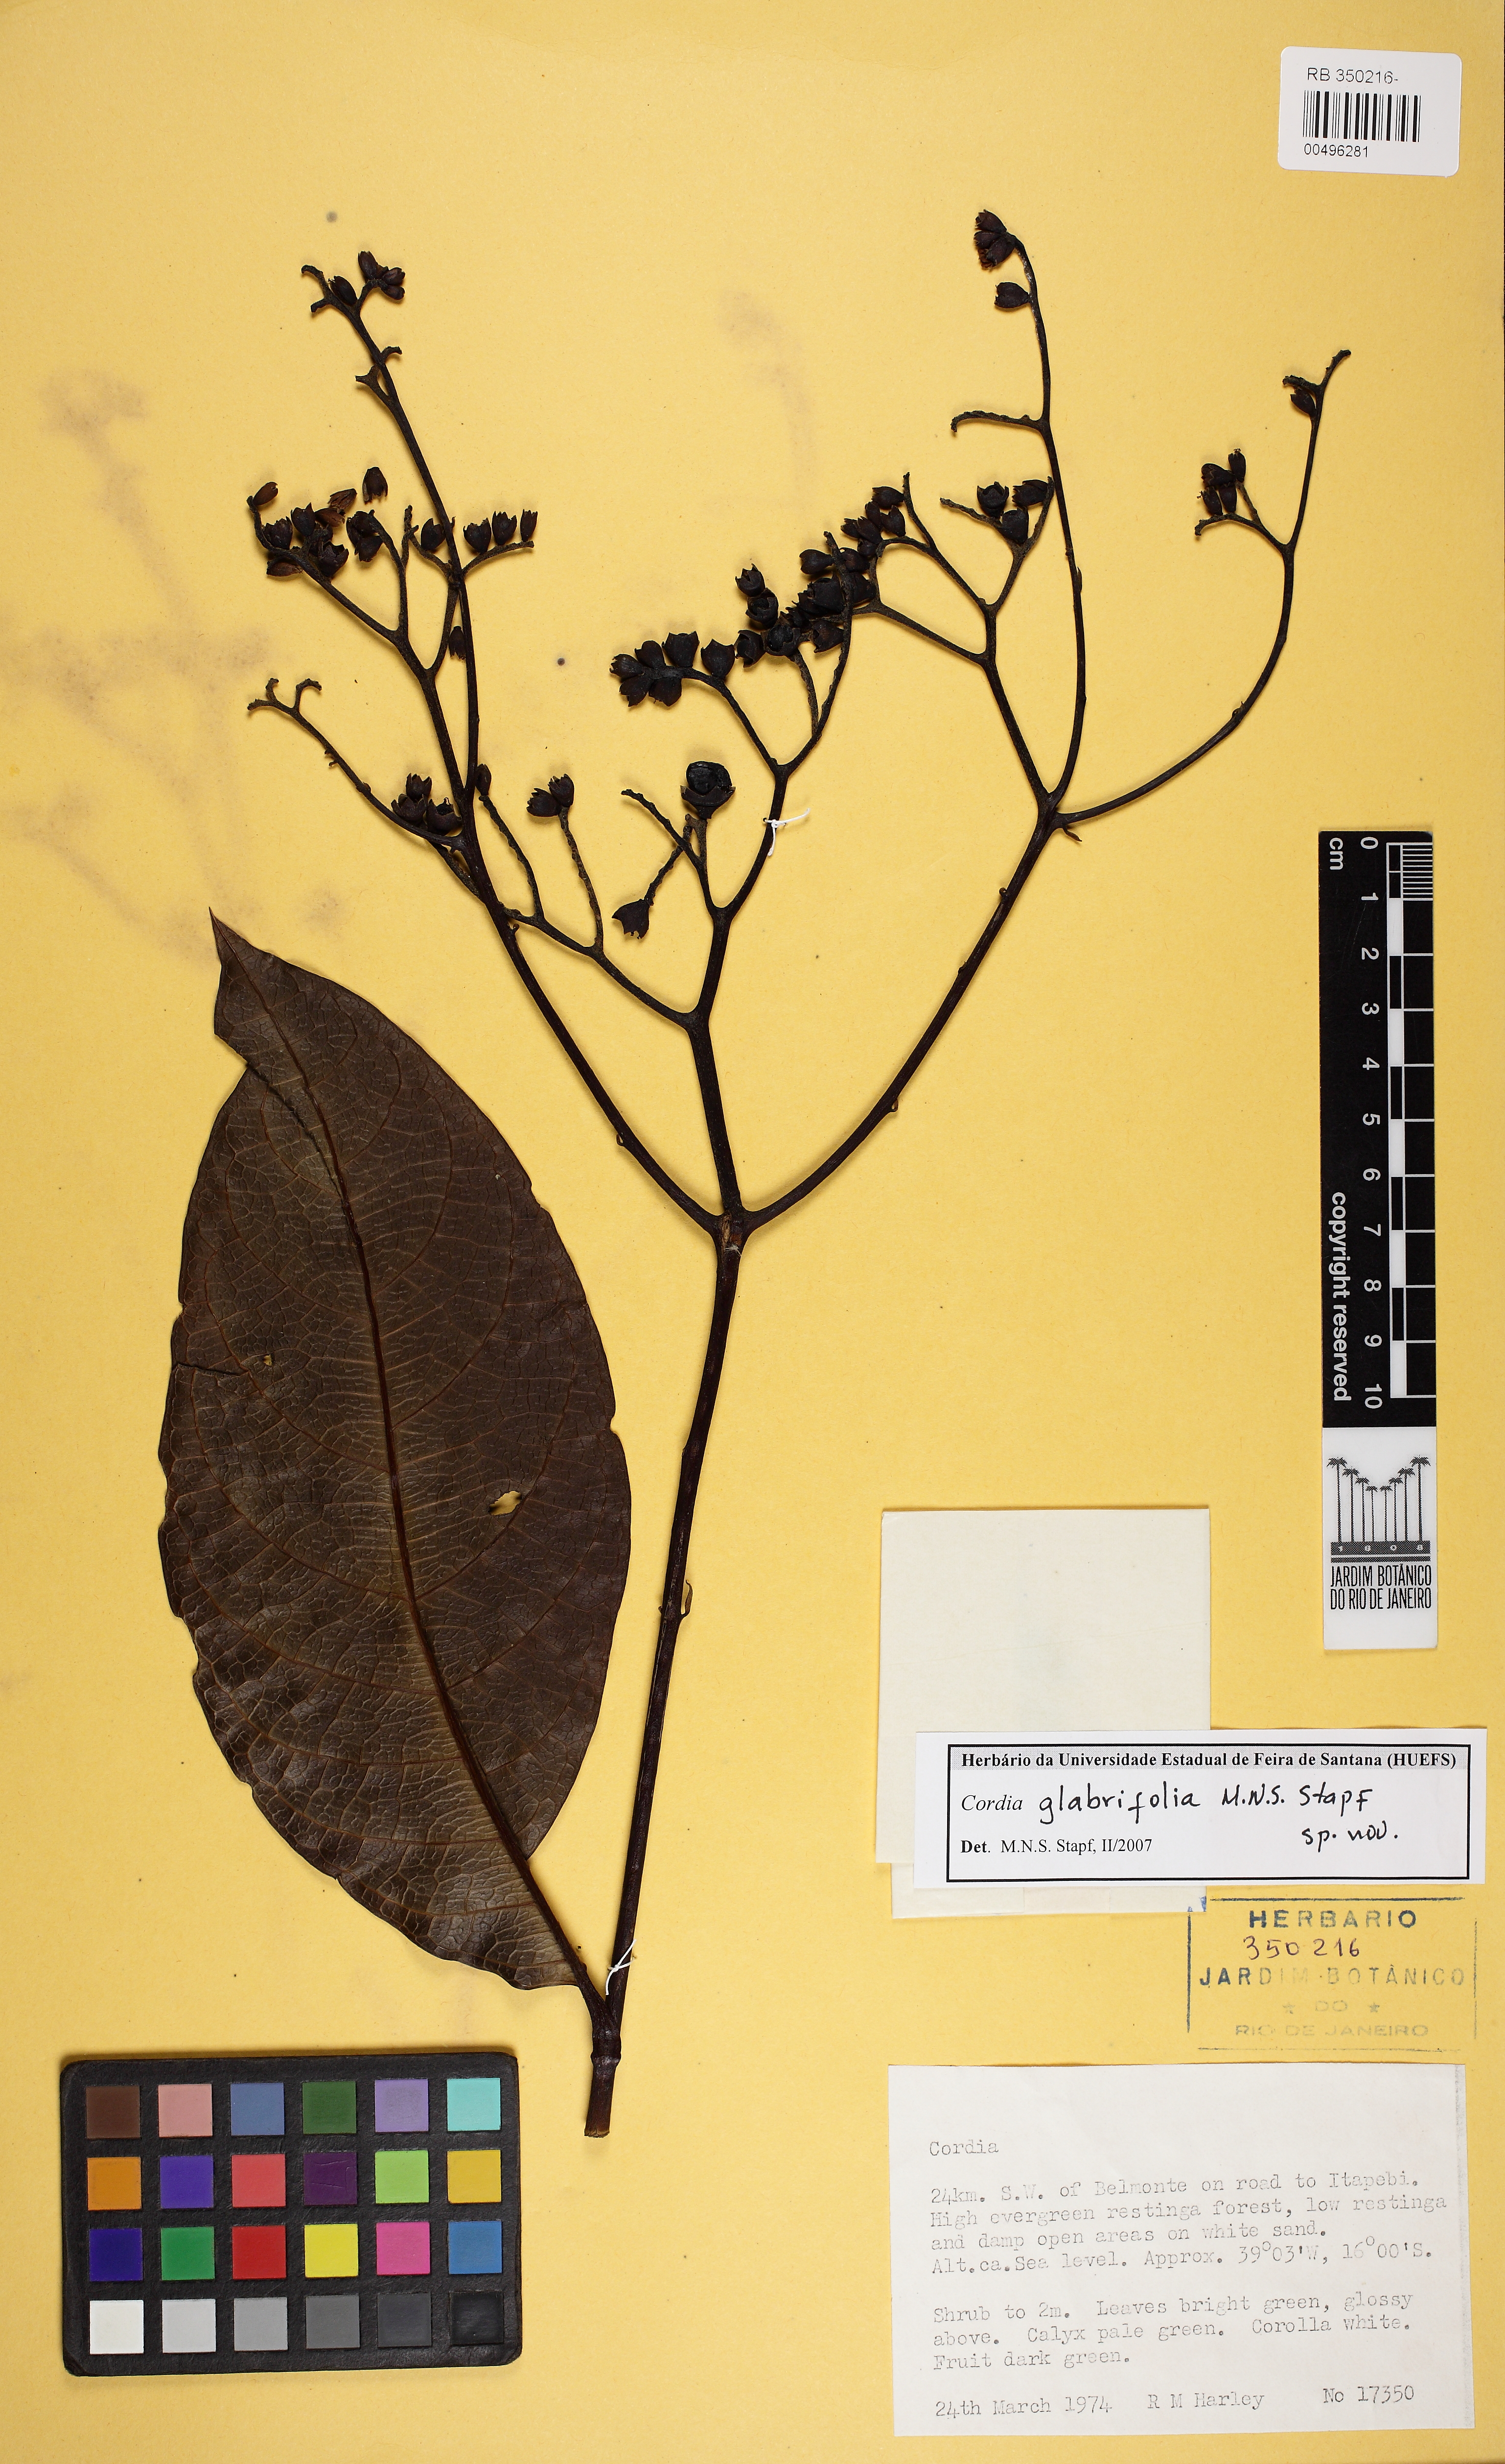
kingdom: Plantae
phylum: Tracheophyta
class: Magnoliopsida
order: Boraginales
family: Cordiaceae
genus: Cordia
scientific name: Cordia glabrifolia
